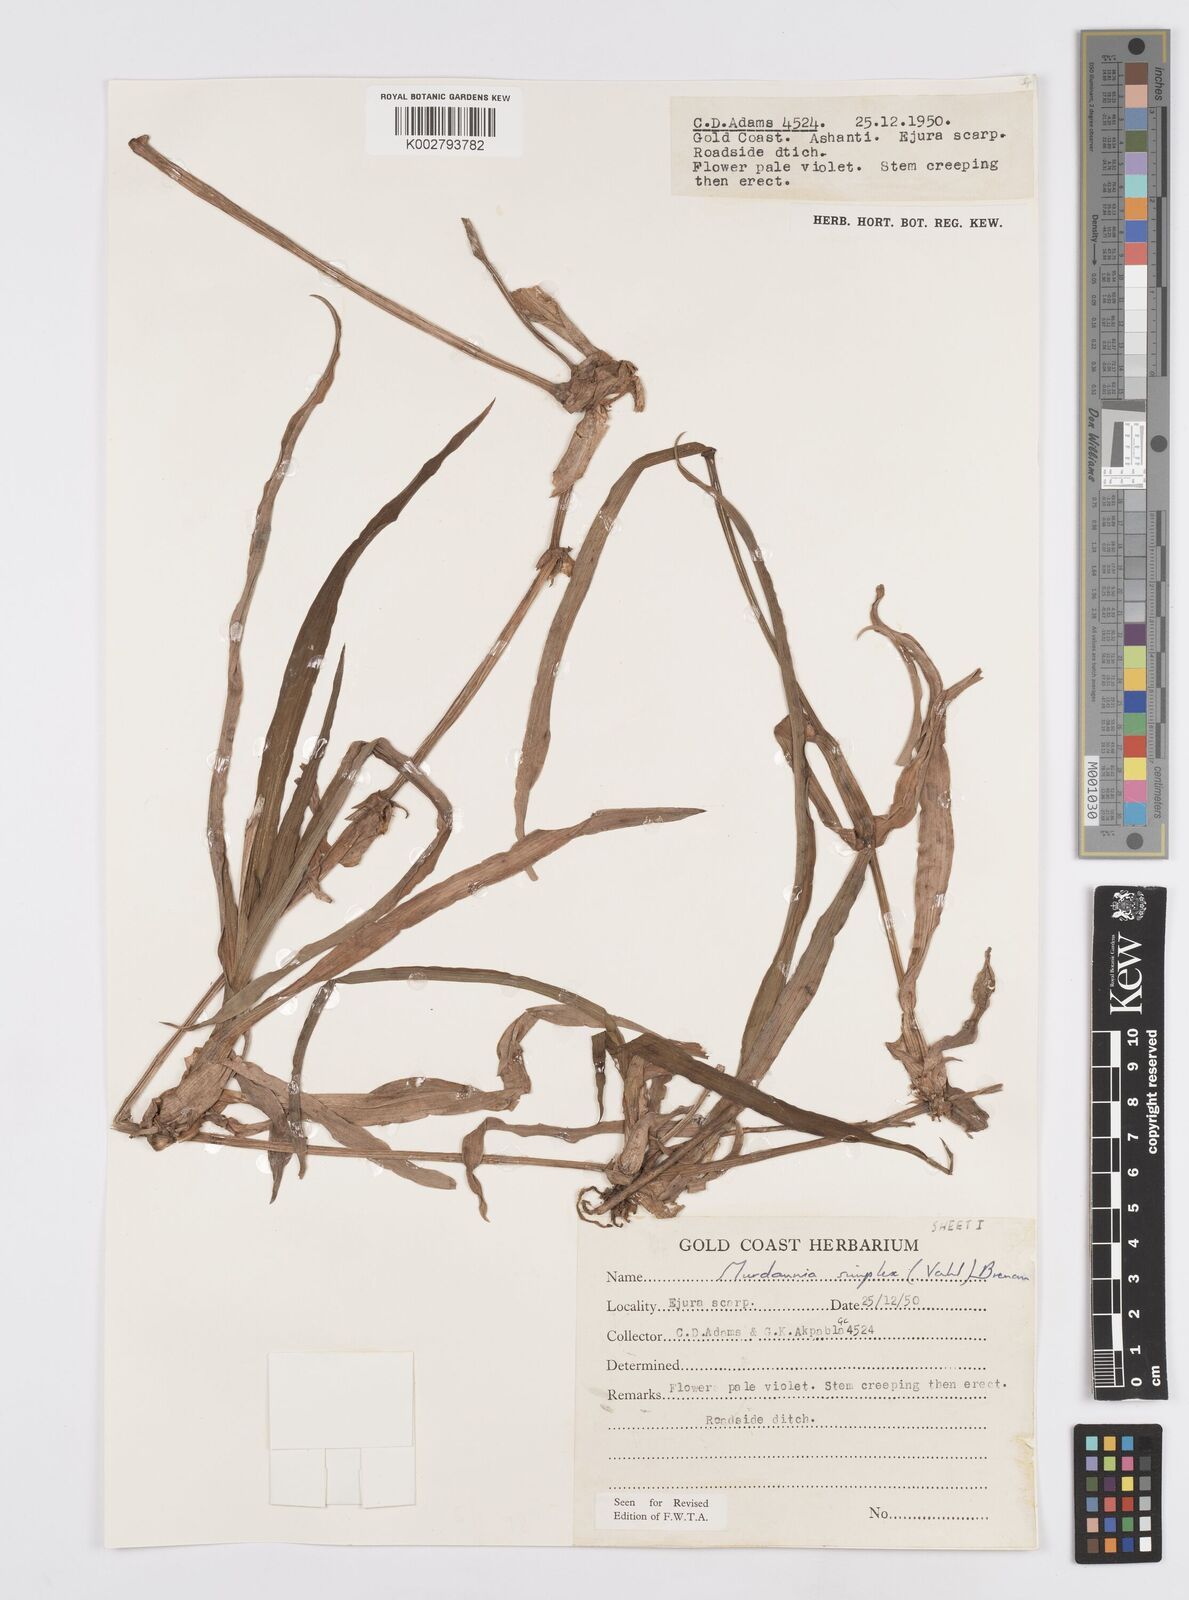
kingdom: Plantae
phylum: Tracheophyta
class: Liliopsida
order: Commelinales
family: Commelinaceae
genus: Murdannia
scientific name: Murdannia simplex
